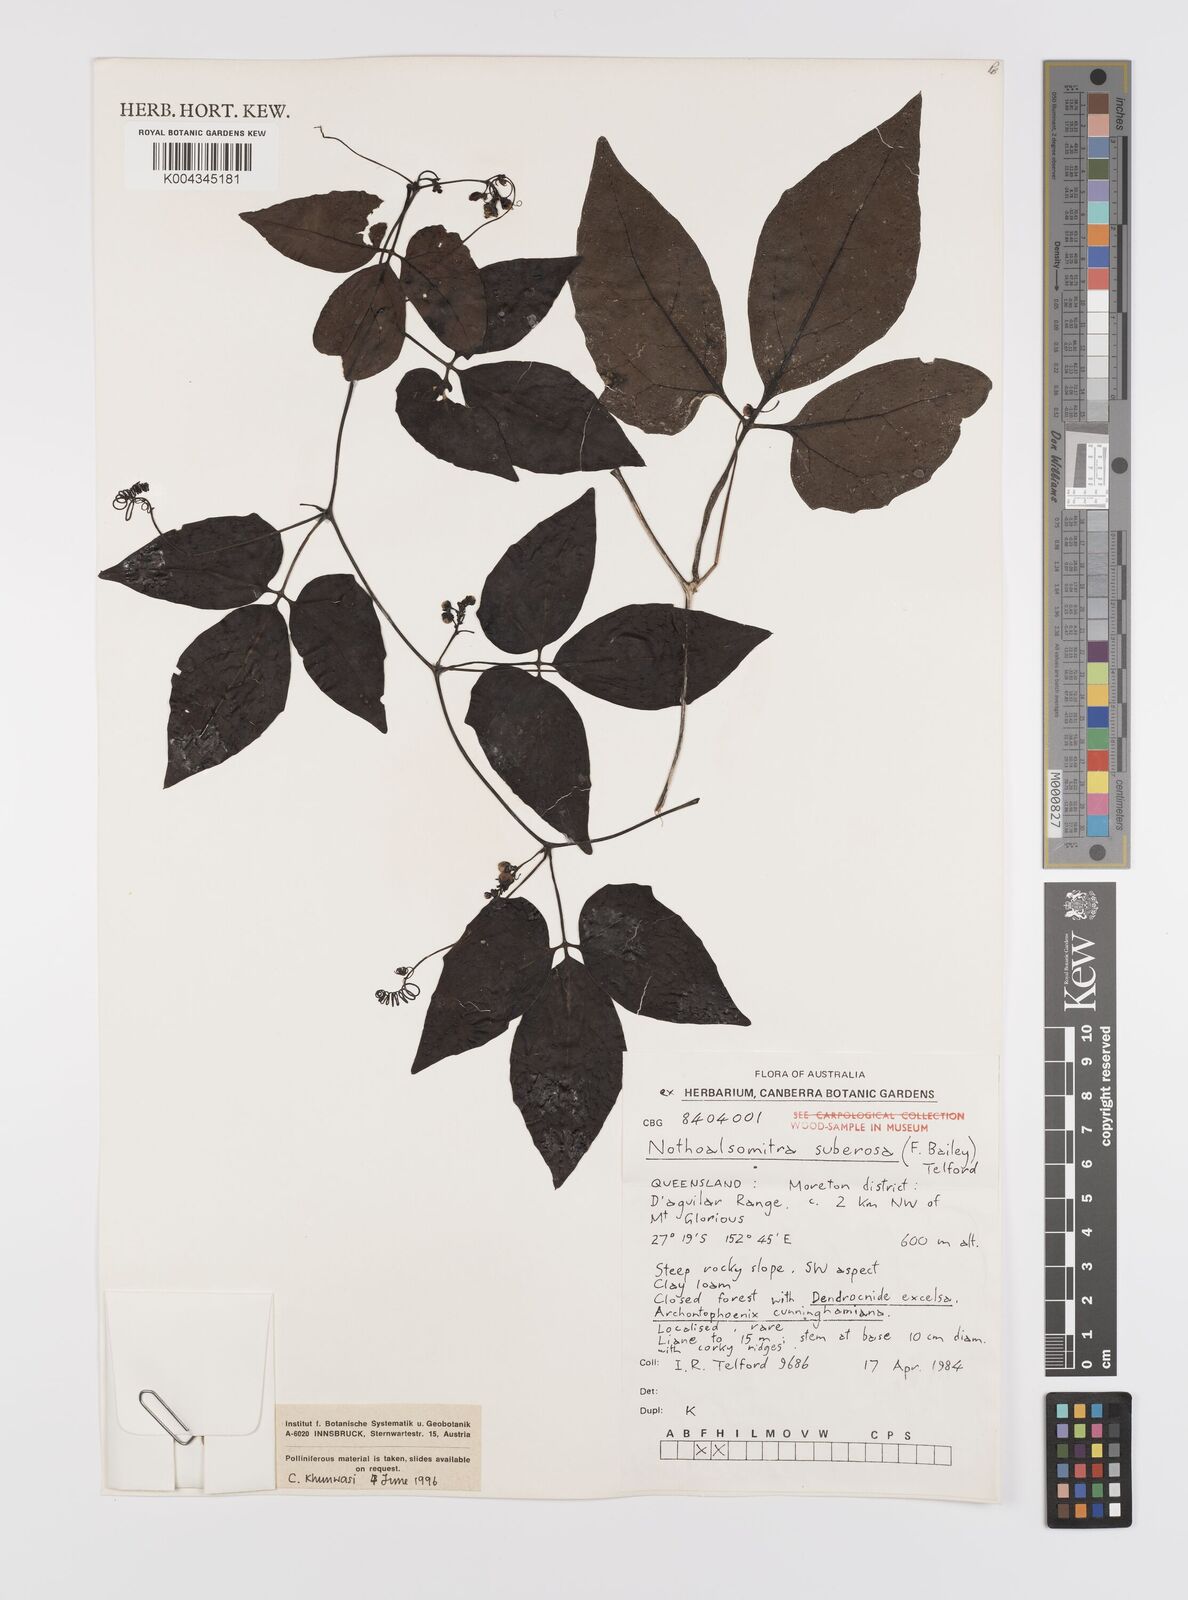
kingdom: Plantae
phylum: Tracheophyta
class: Magnoliopsida
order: Cucurbitales
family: Cucurbitaceae
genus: Nothoalsomitra
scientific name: Nothoalsomitra suberosa
